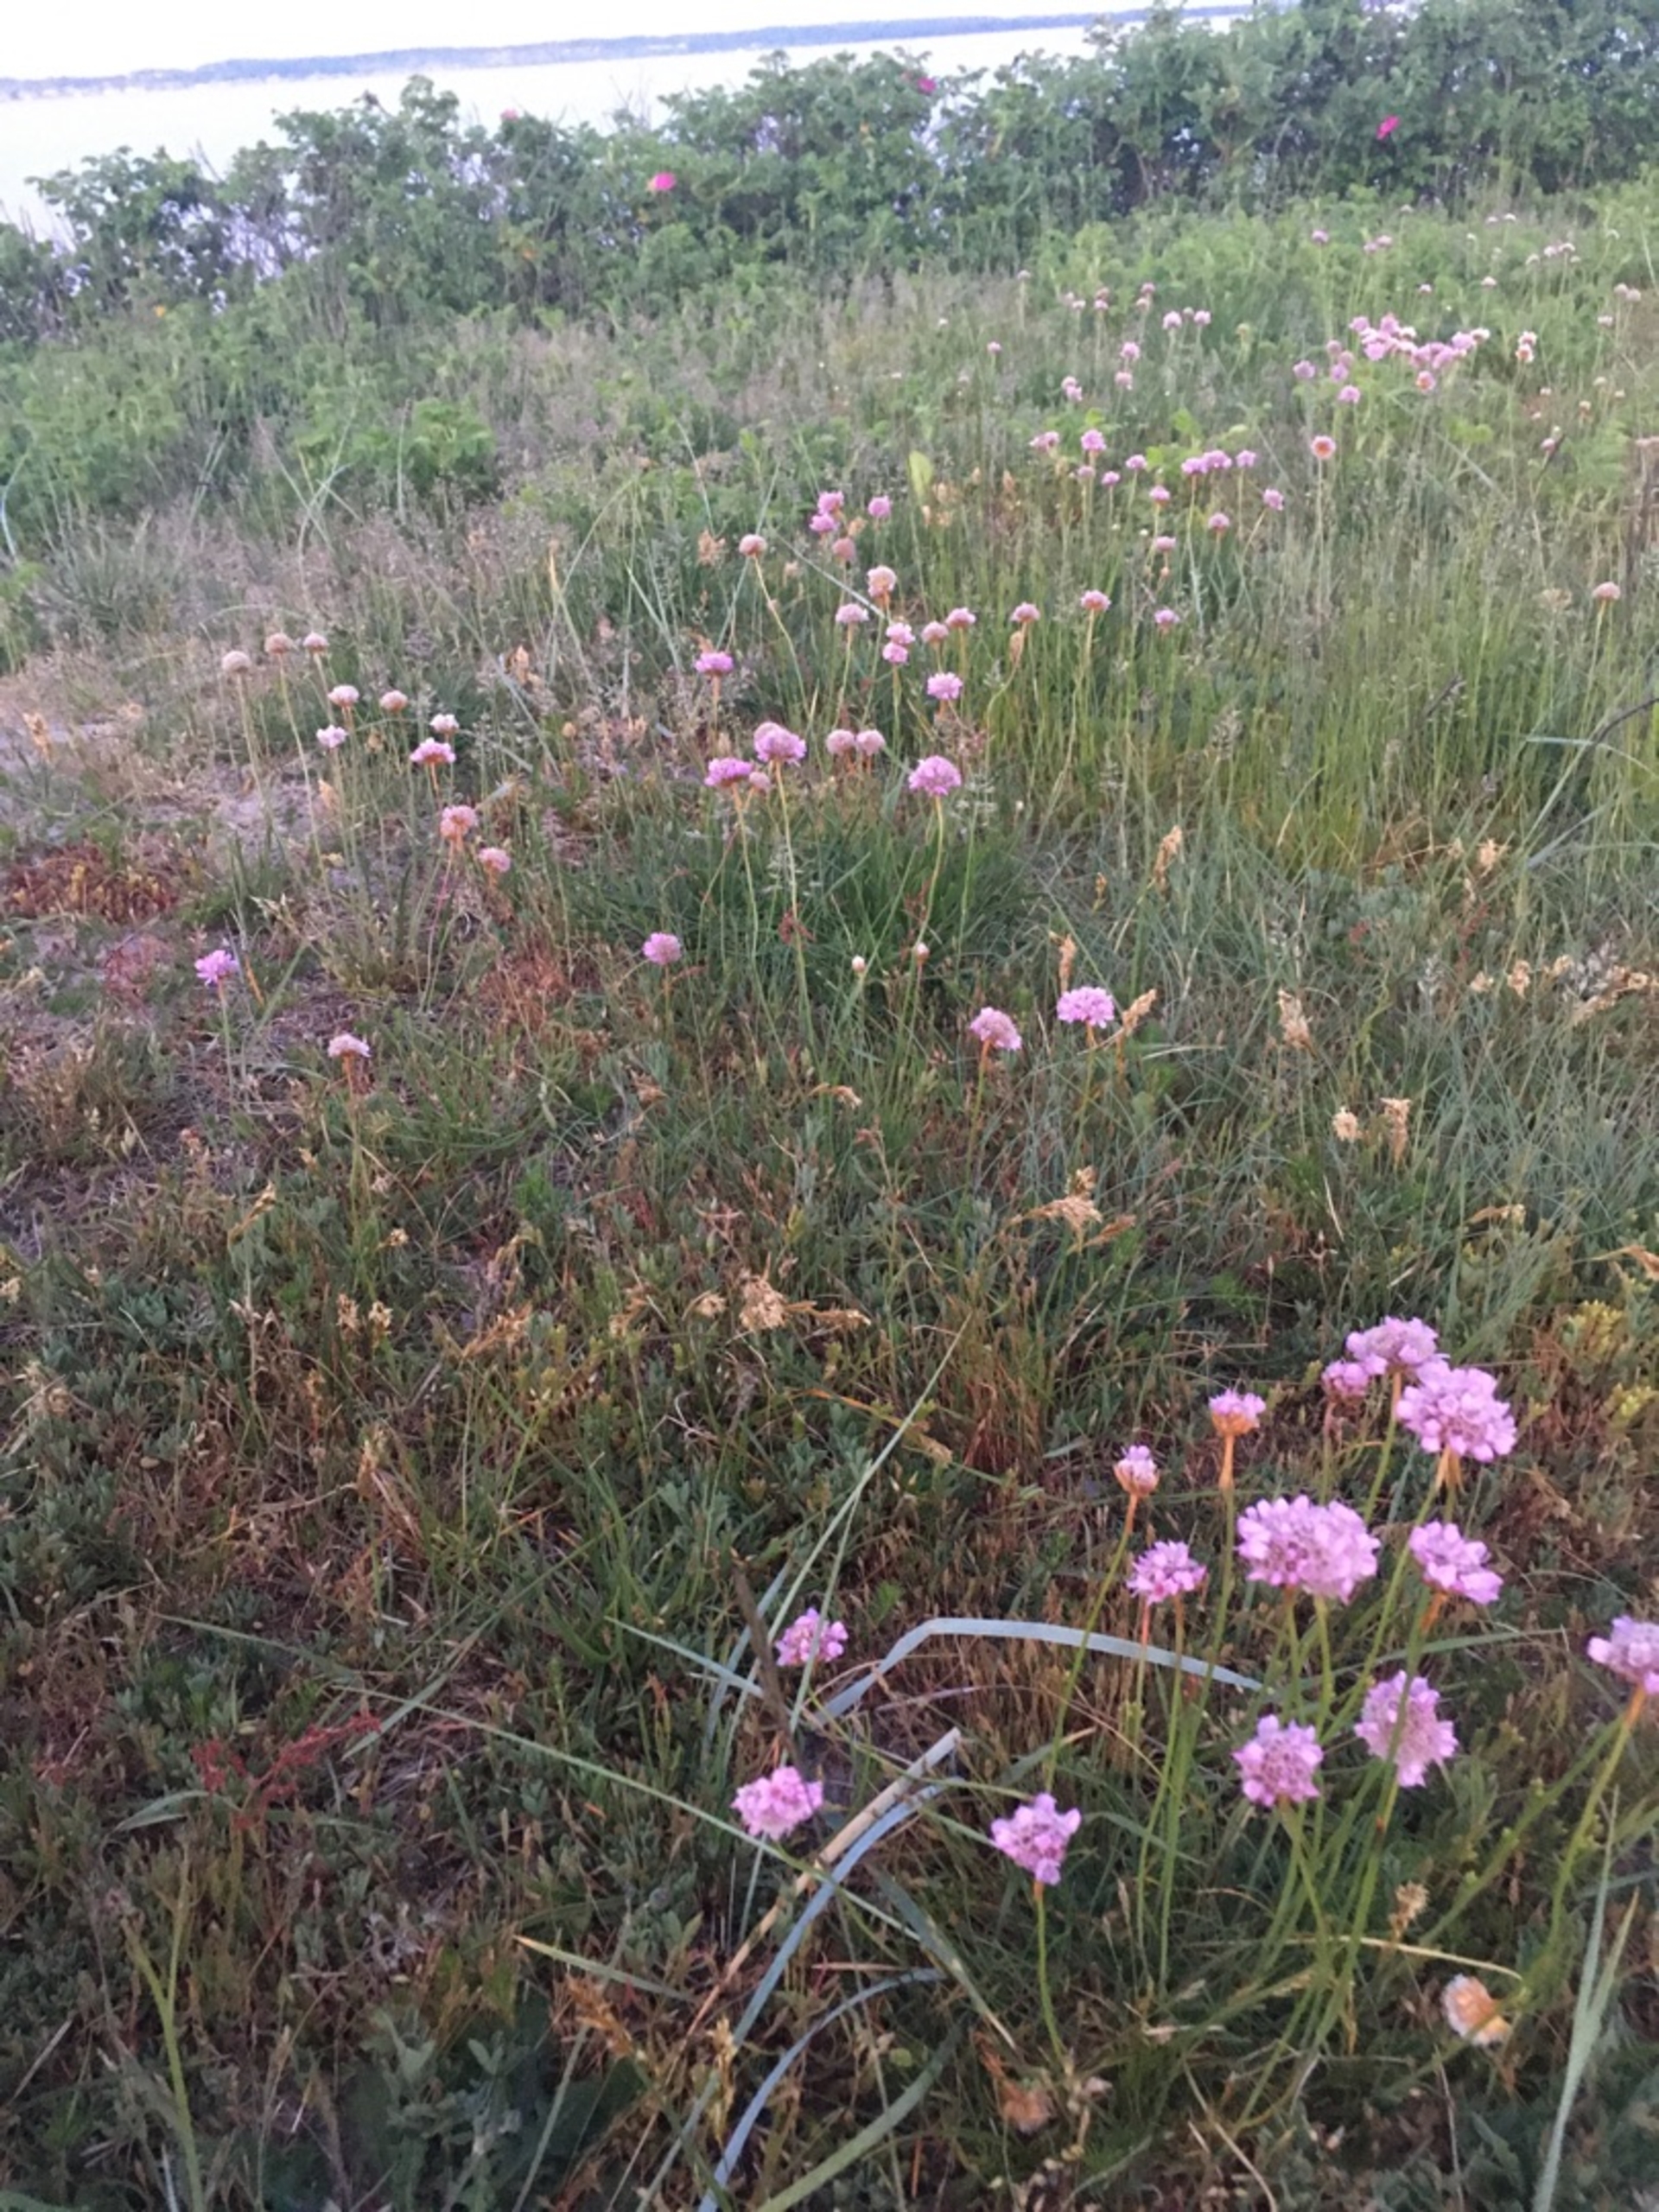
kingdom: Plantae
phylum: Tracheophyta
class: Magnoliopsida
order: Caryophyllales
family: Plumbaginaceae
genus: Armeria
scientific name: Armeria maritima
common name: Engelskgræs
